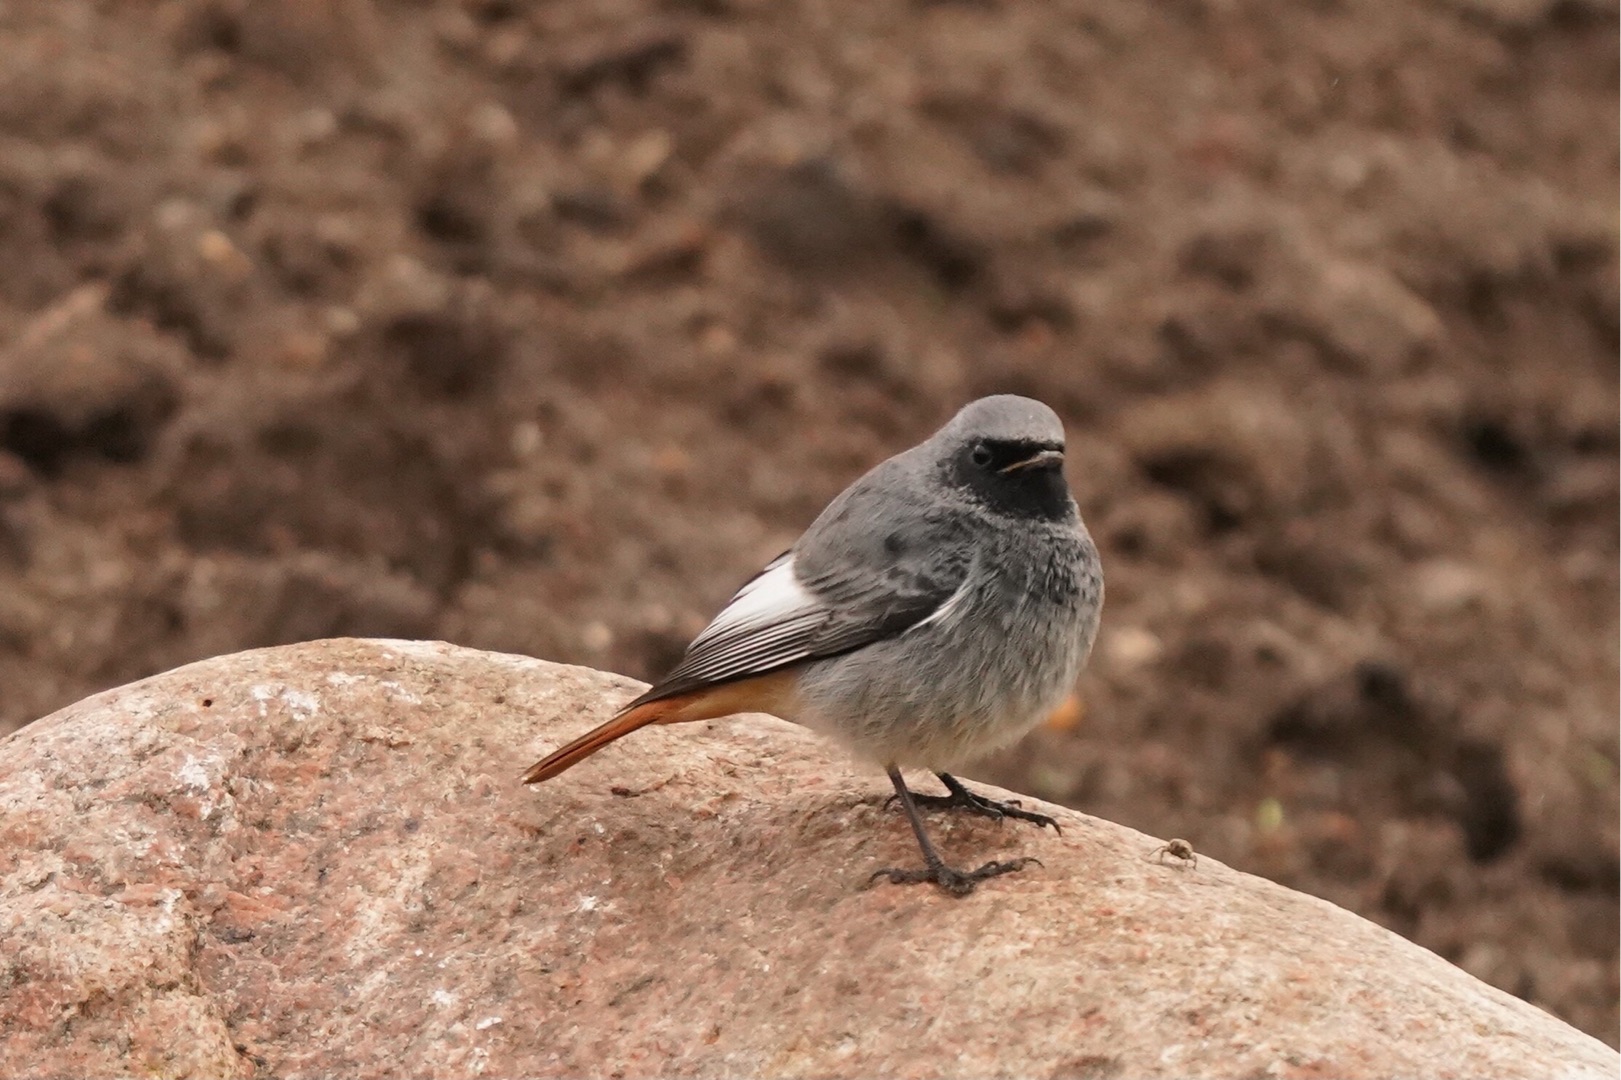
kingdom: Animalia
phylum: Chordata
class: Aves
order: Passeriformes
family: Muscicapidae
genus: Phoenicurus
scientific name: Phoenicurus ochruros
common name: Husrødstjert
